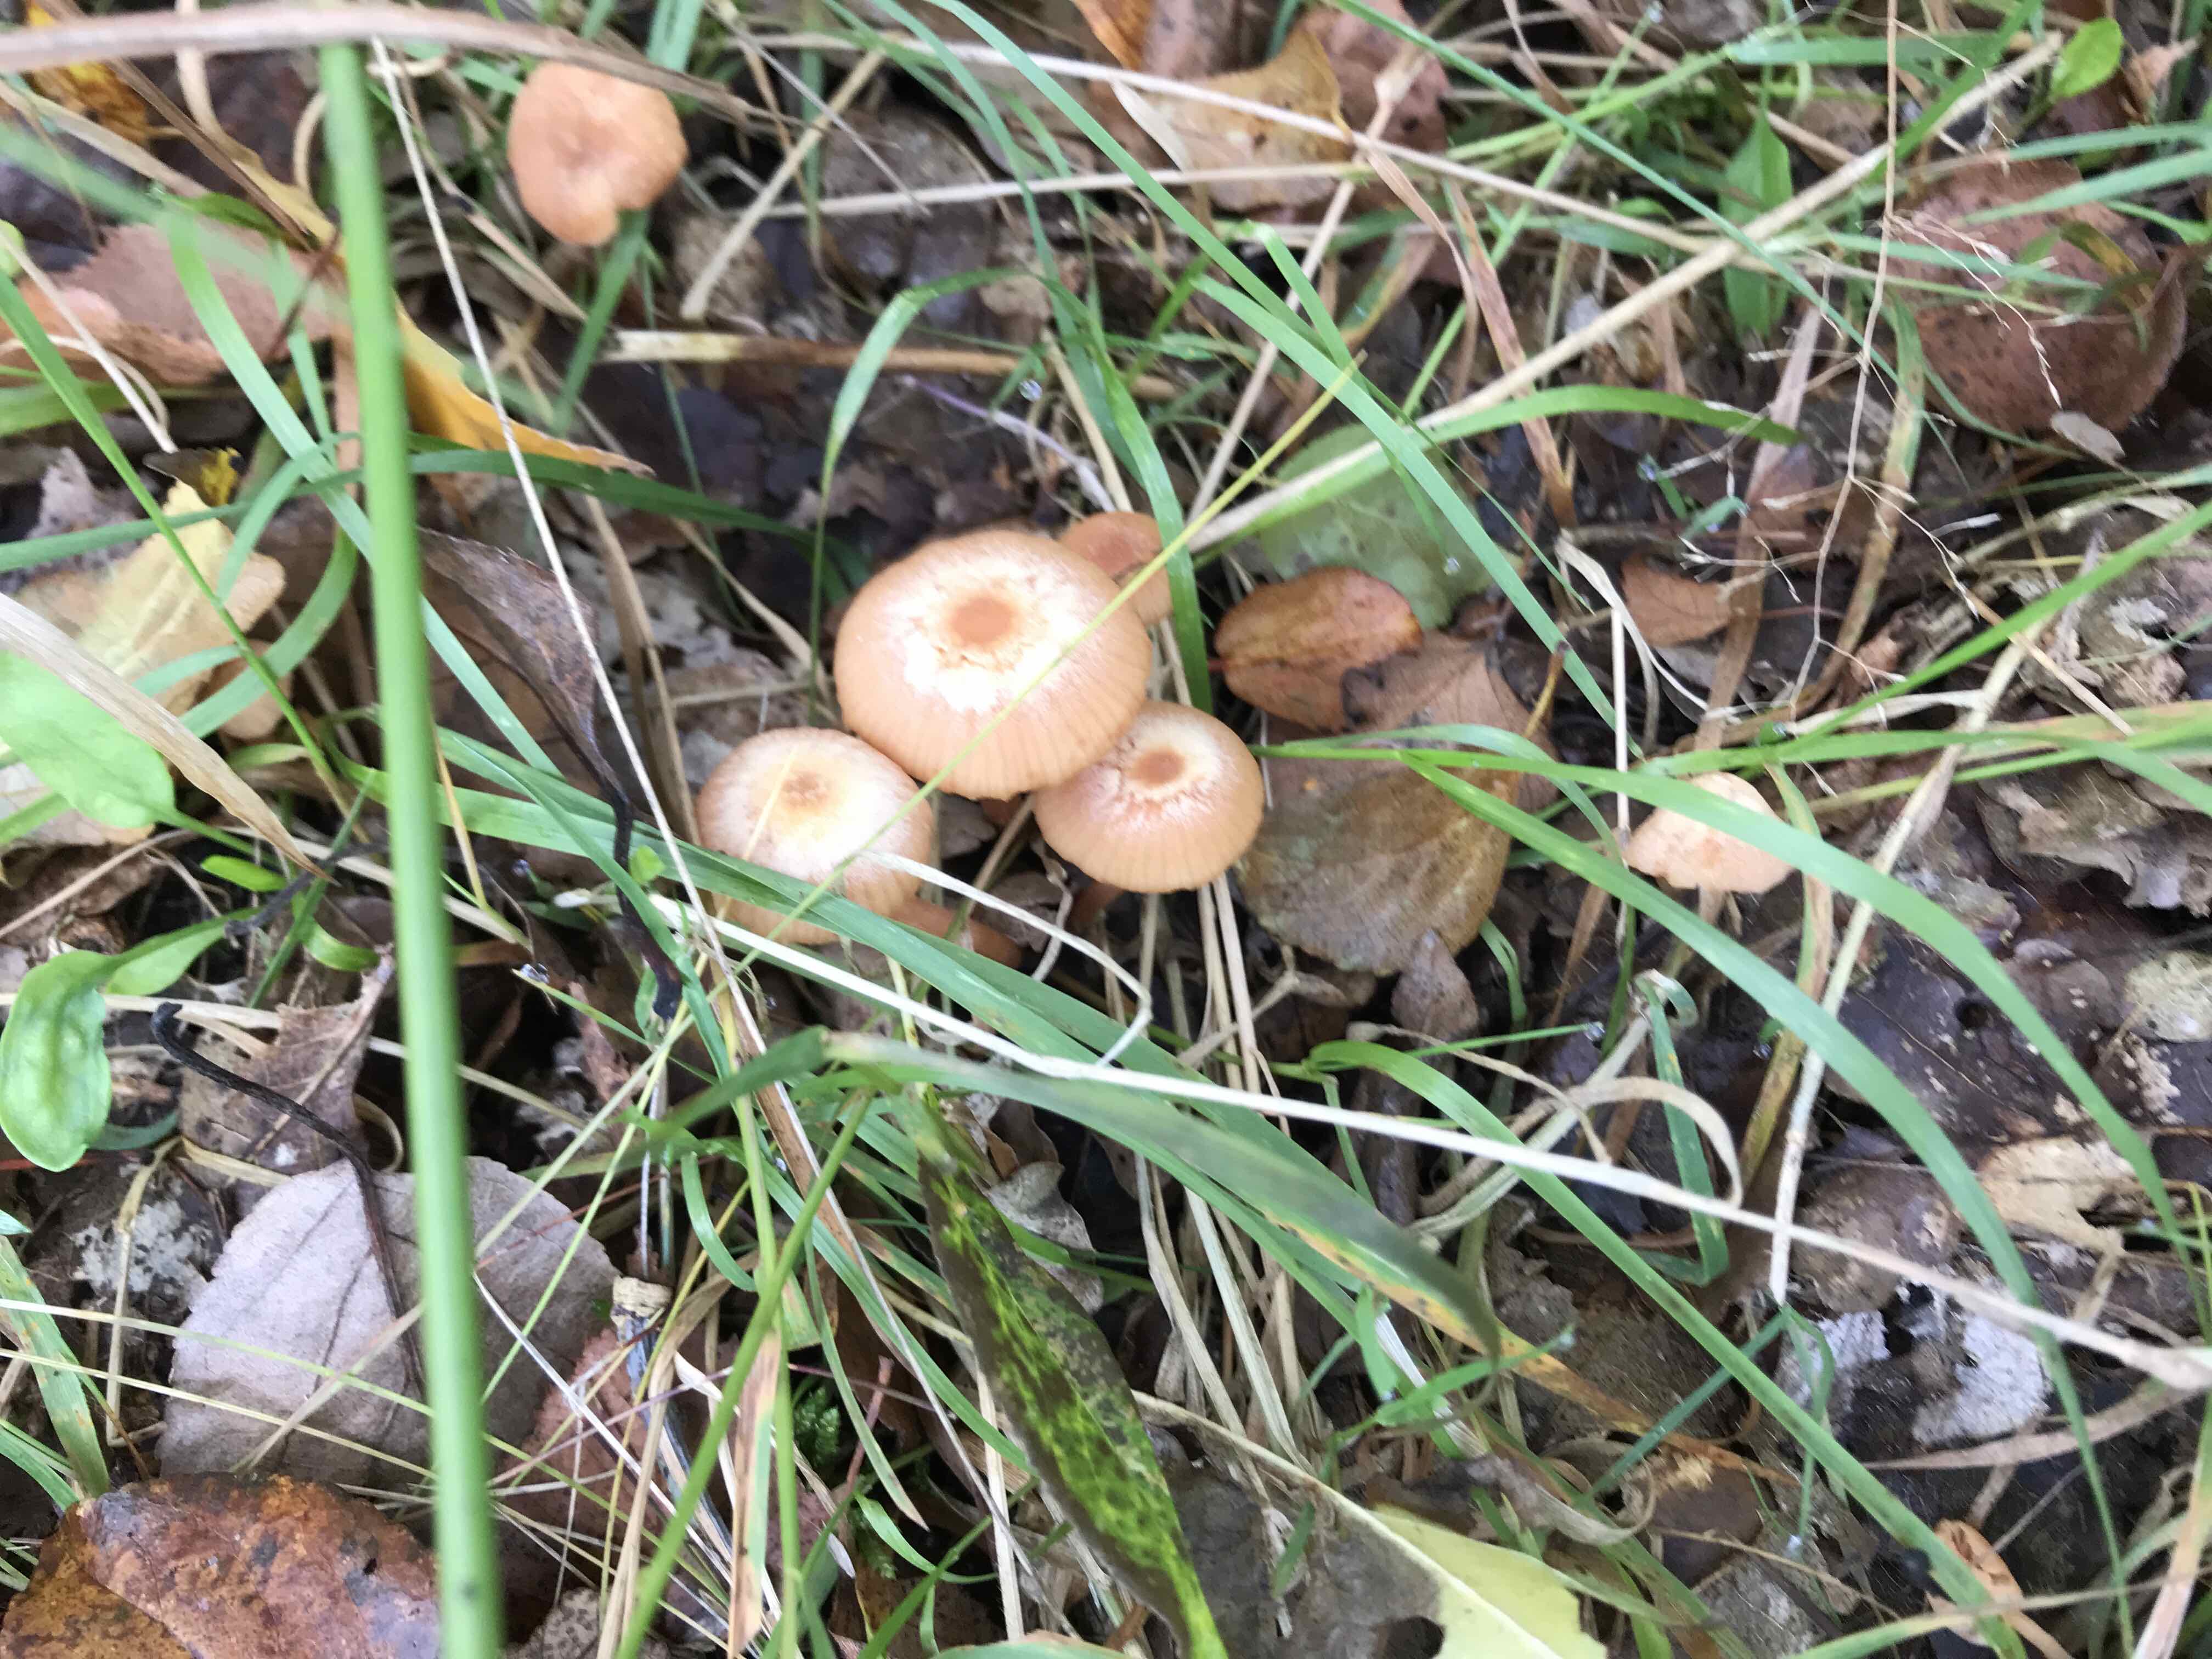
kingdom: Fungi
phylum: Basidiomycota
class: Agaricomycetes
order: Agaricales
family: Hydnangiaceae
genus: Laccaria
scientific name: Laccaria laccata
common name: rød ametysthat
